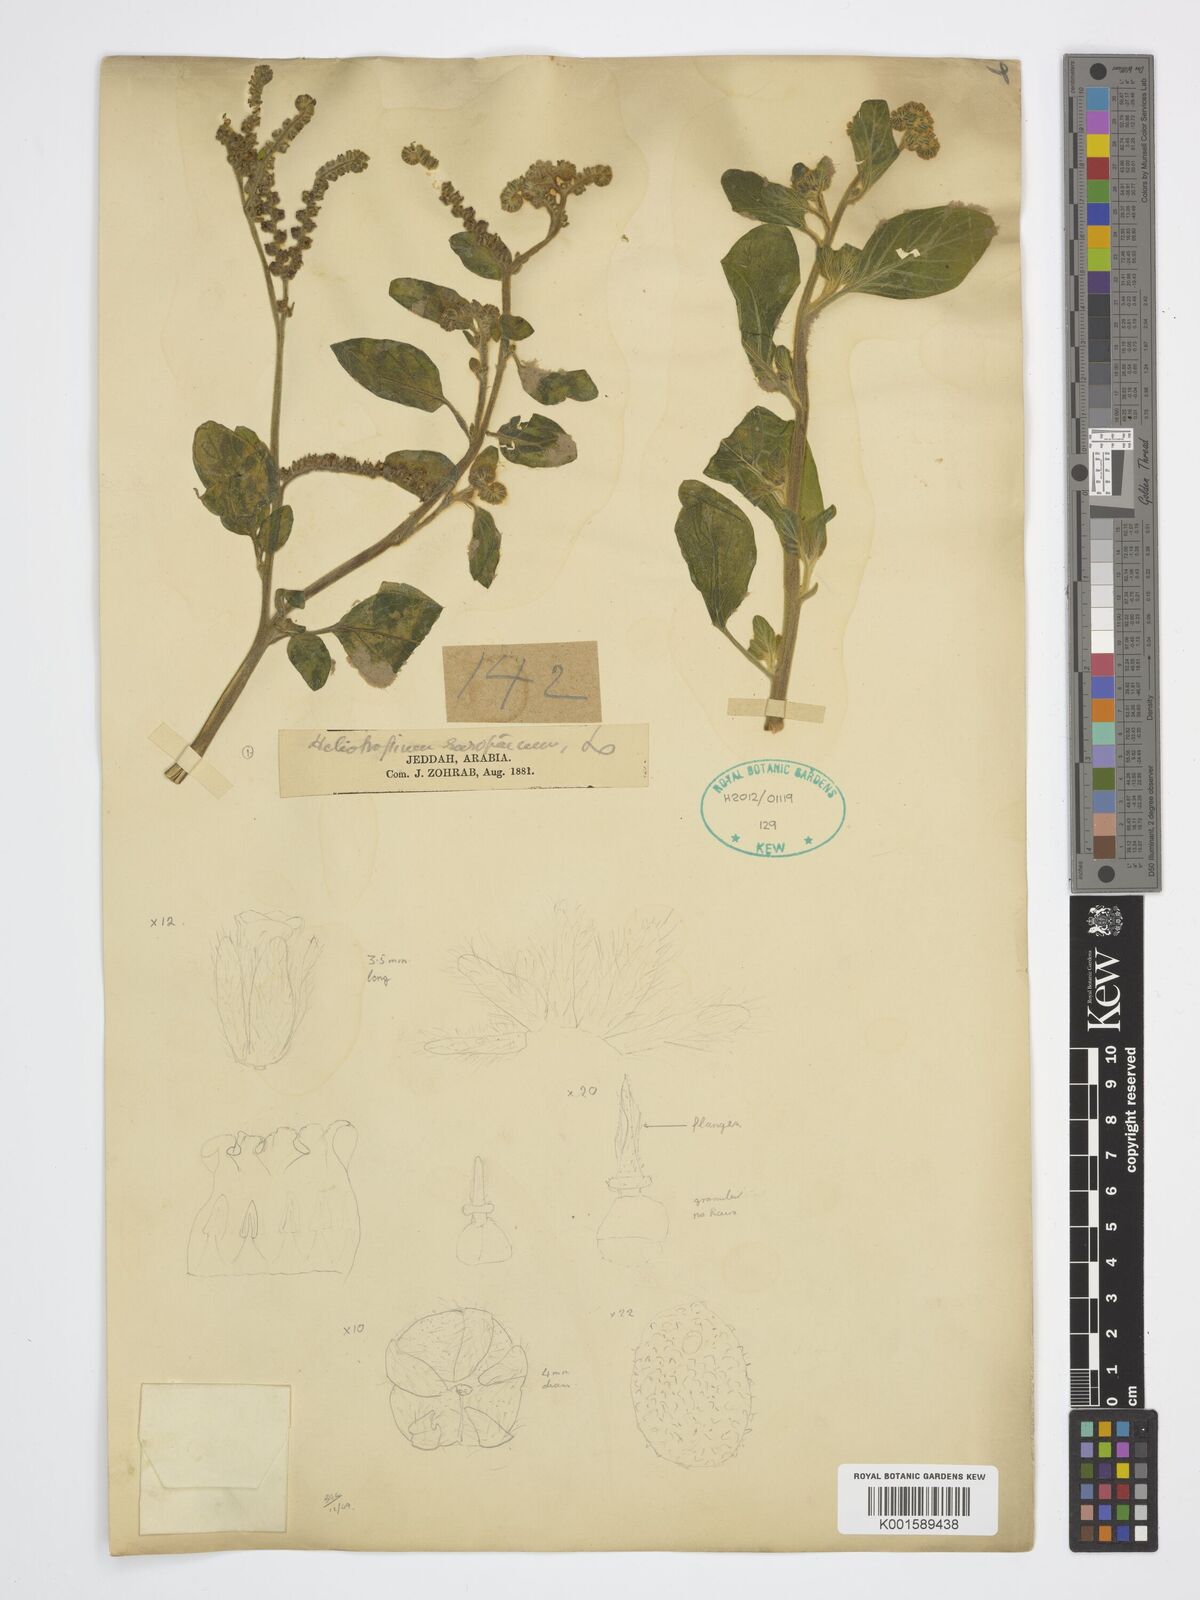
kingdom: Plantae
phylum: Tracheophyta
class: Magnoliopsida
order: Boraginales
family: Heliotropiaceae
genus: Heliotropium
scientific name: Heliotropium europaeum
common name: European heliotrope
